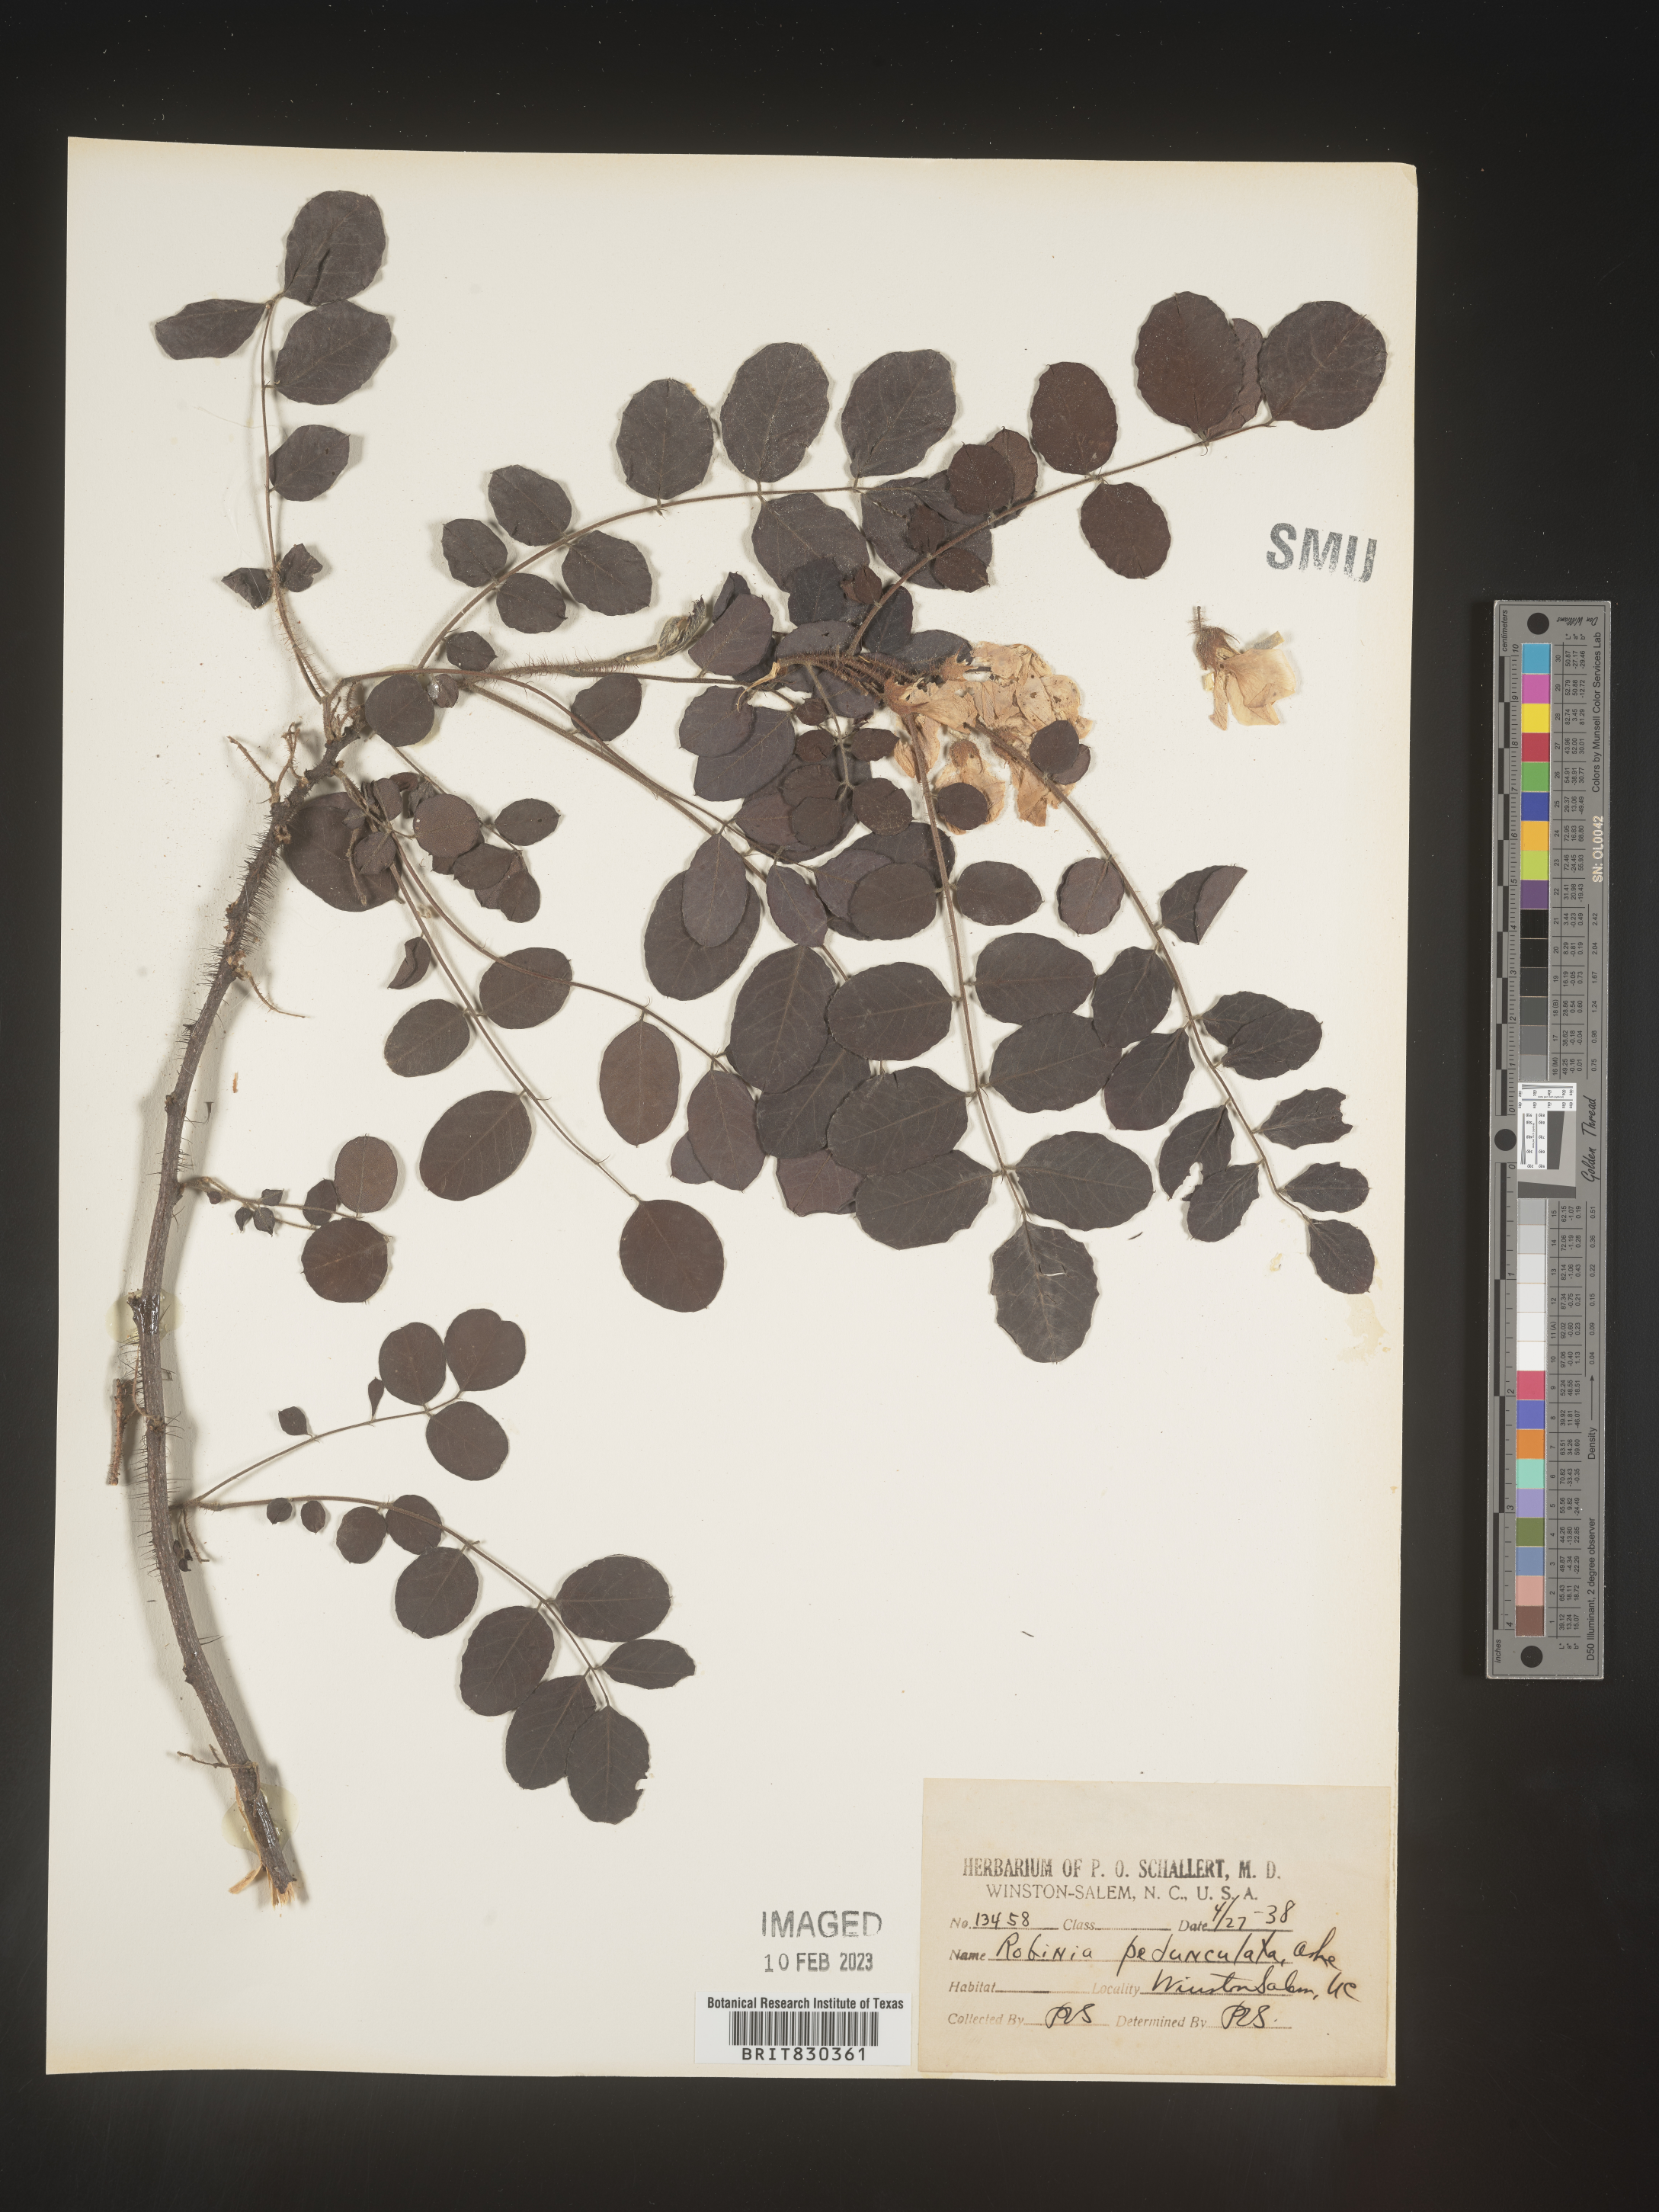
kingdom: Plantae
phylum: Tracheophyta
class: Magnoliopsida
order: Fabales
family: Fabaceae
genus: Robinia
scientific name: Robinia
